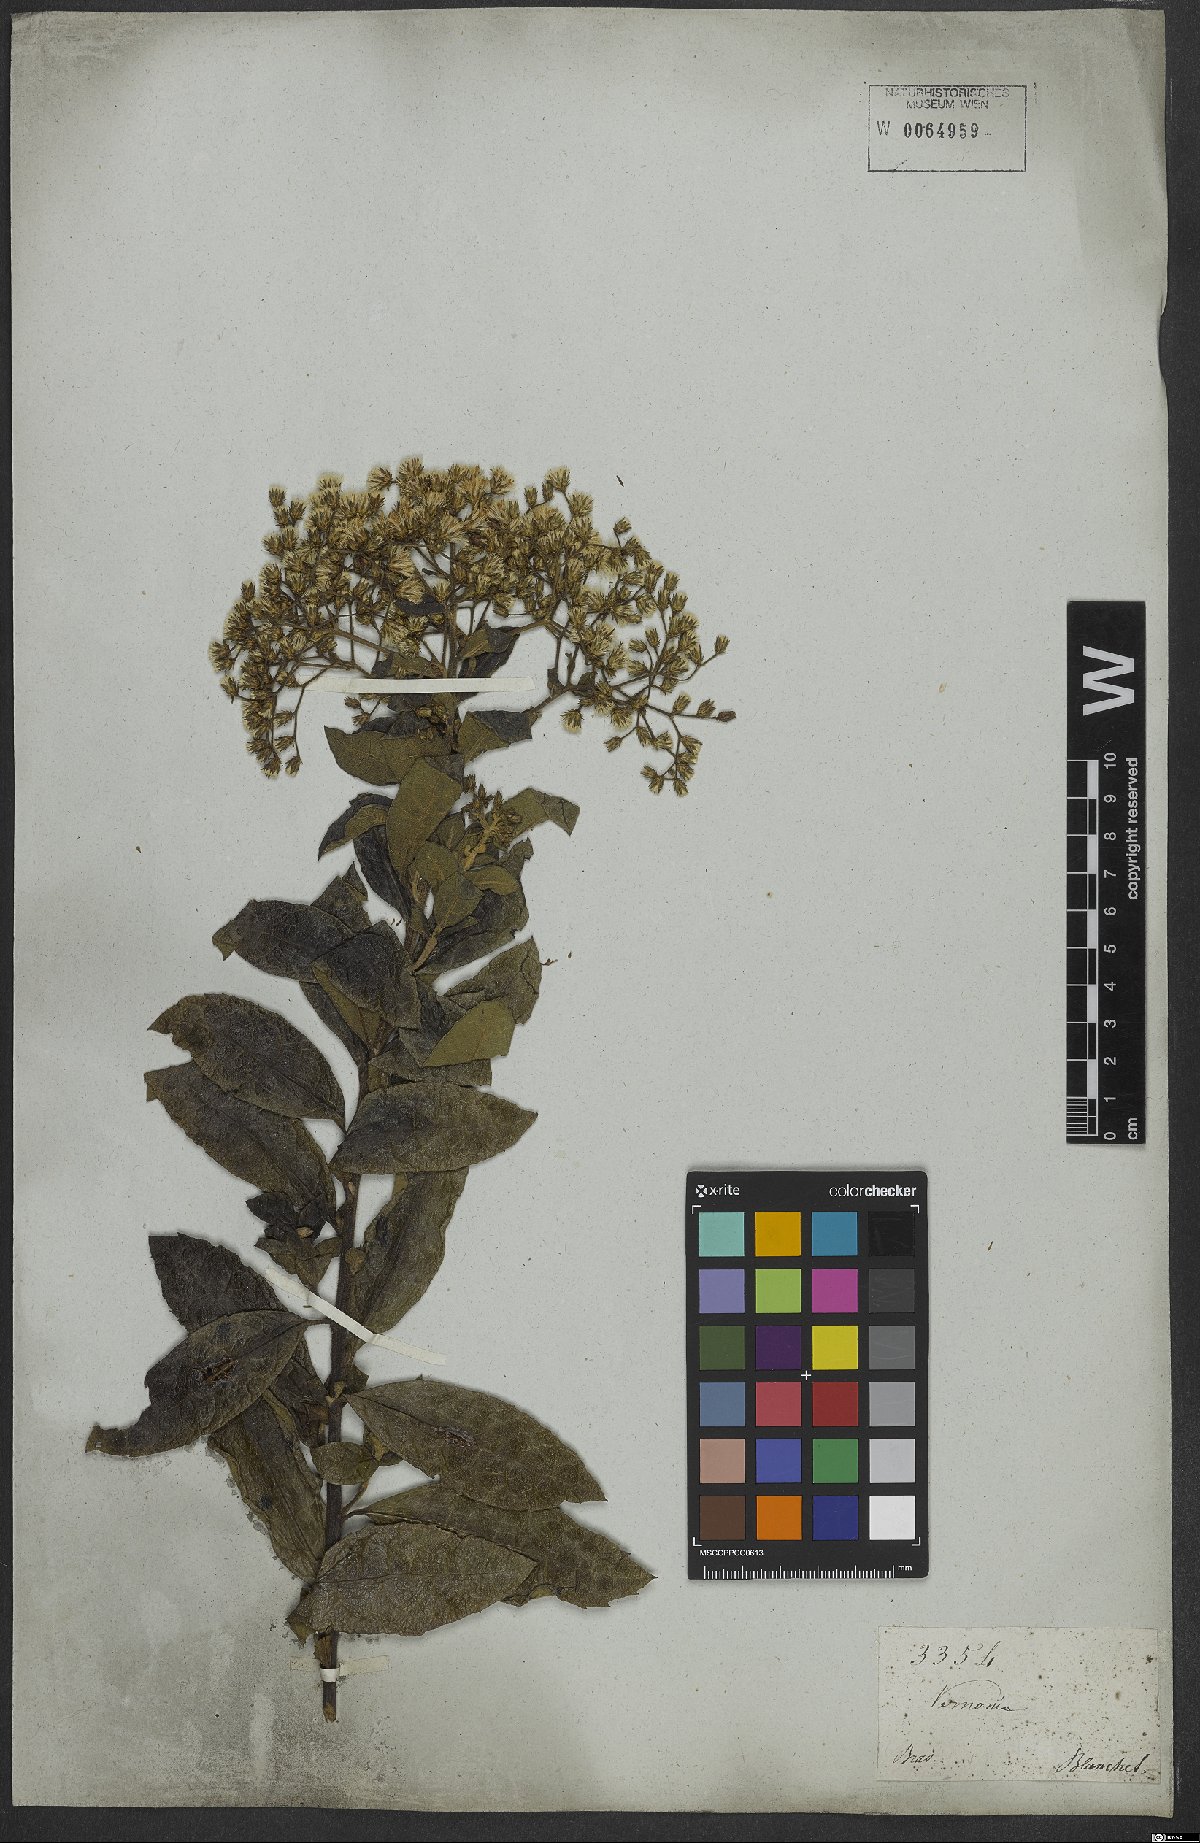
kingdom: Plantae
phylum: Tracheophyta
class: Magnoliopsida
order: Asterales
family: Asteraceae
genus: Vernonanthura
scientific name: Vernonanthura membranacea
